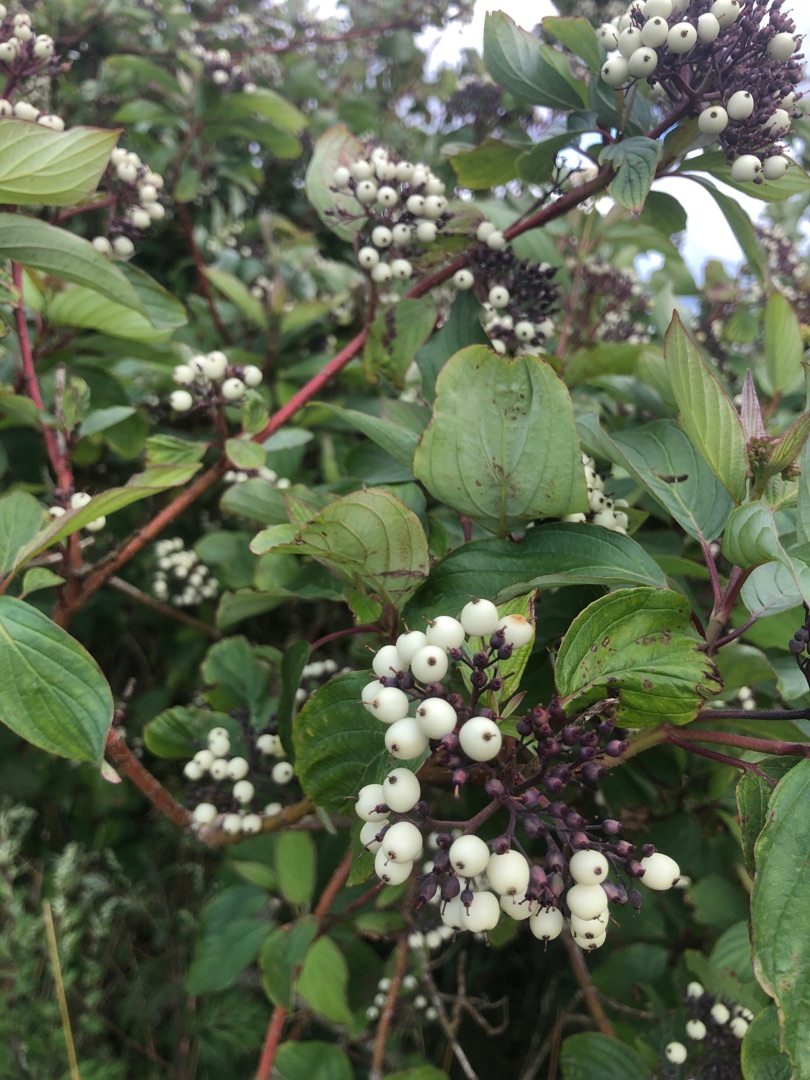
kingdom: Plantae
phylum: Tracheophyta
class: Magnoliopsida
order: Cornales
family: Cornaceae
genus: Cornus
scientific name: Cornus sericea
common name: Krybende kornel
